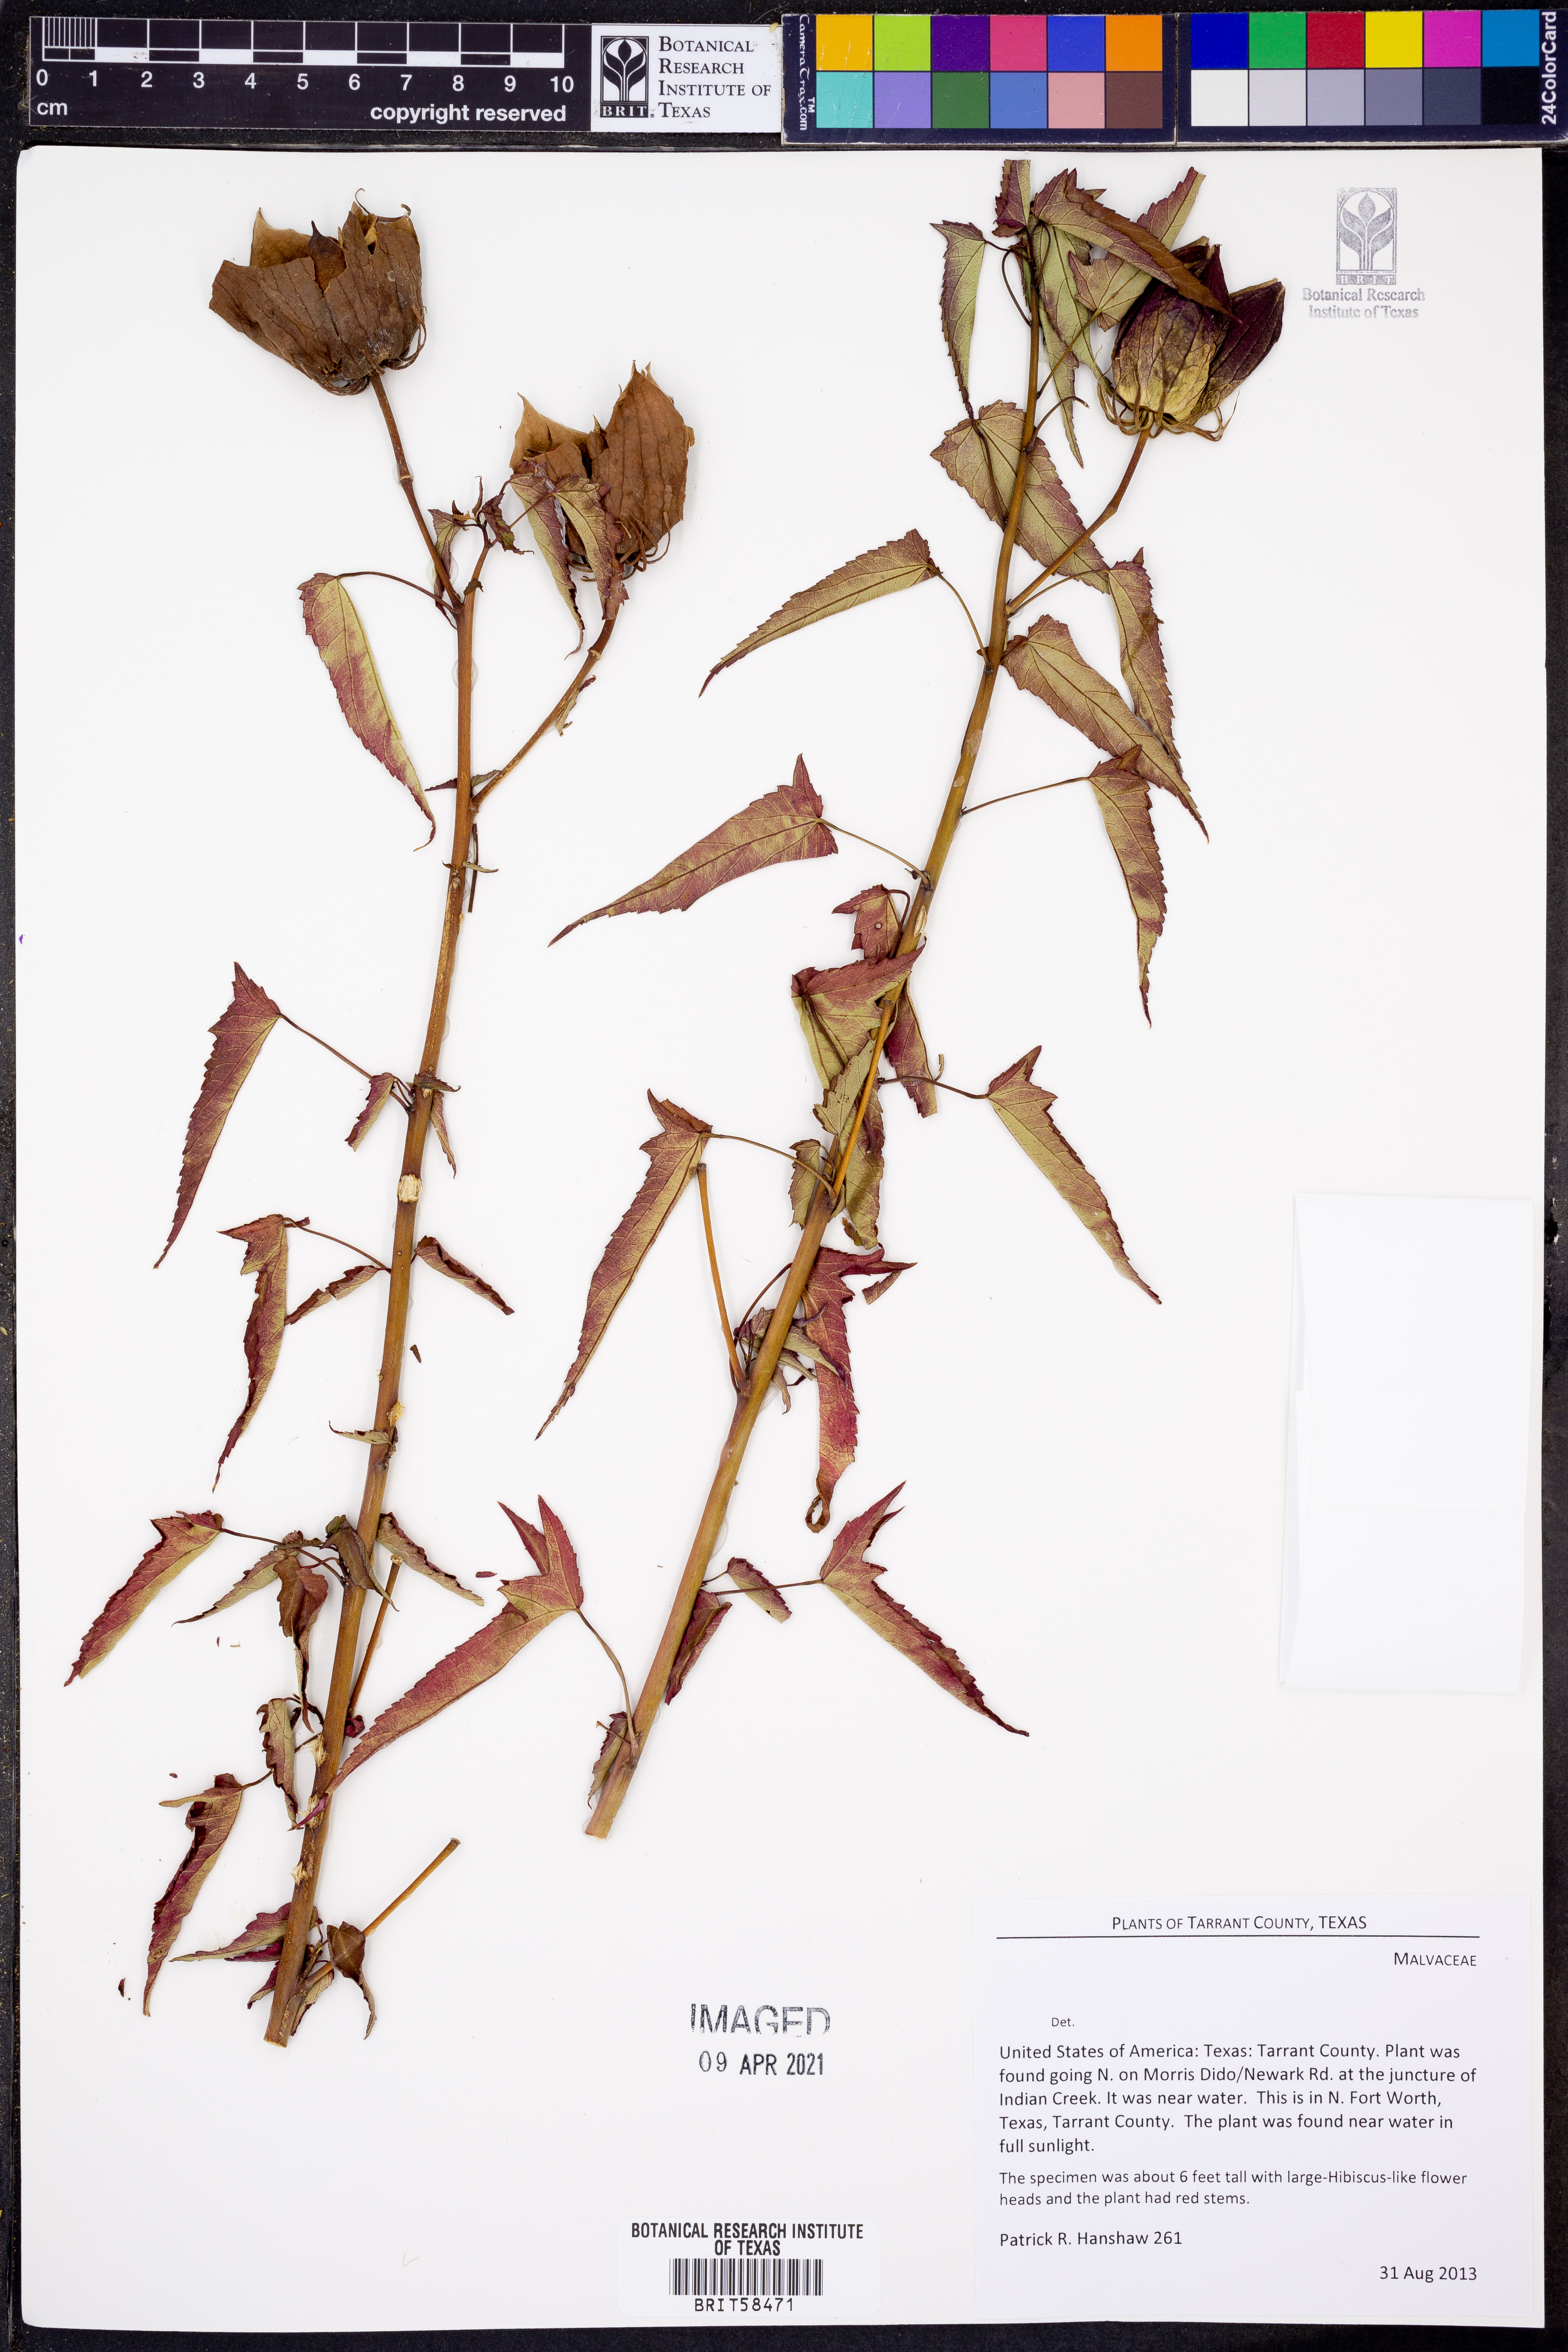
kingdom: Plantae
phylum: Tracheophyta
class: Magnoliopsida
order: Malvales
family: Malvaceae
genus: Hibiscus
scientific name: Hibiscus coccineus
